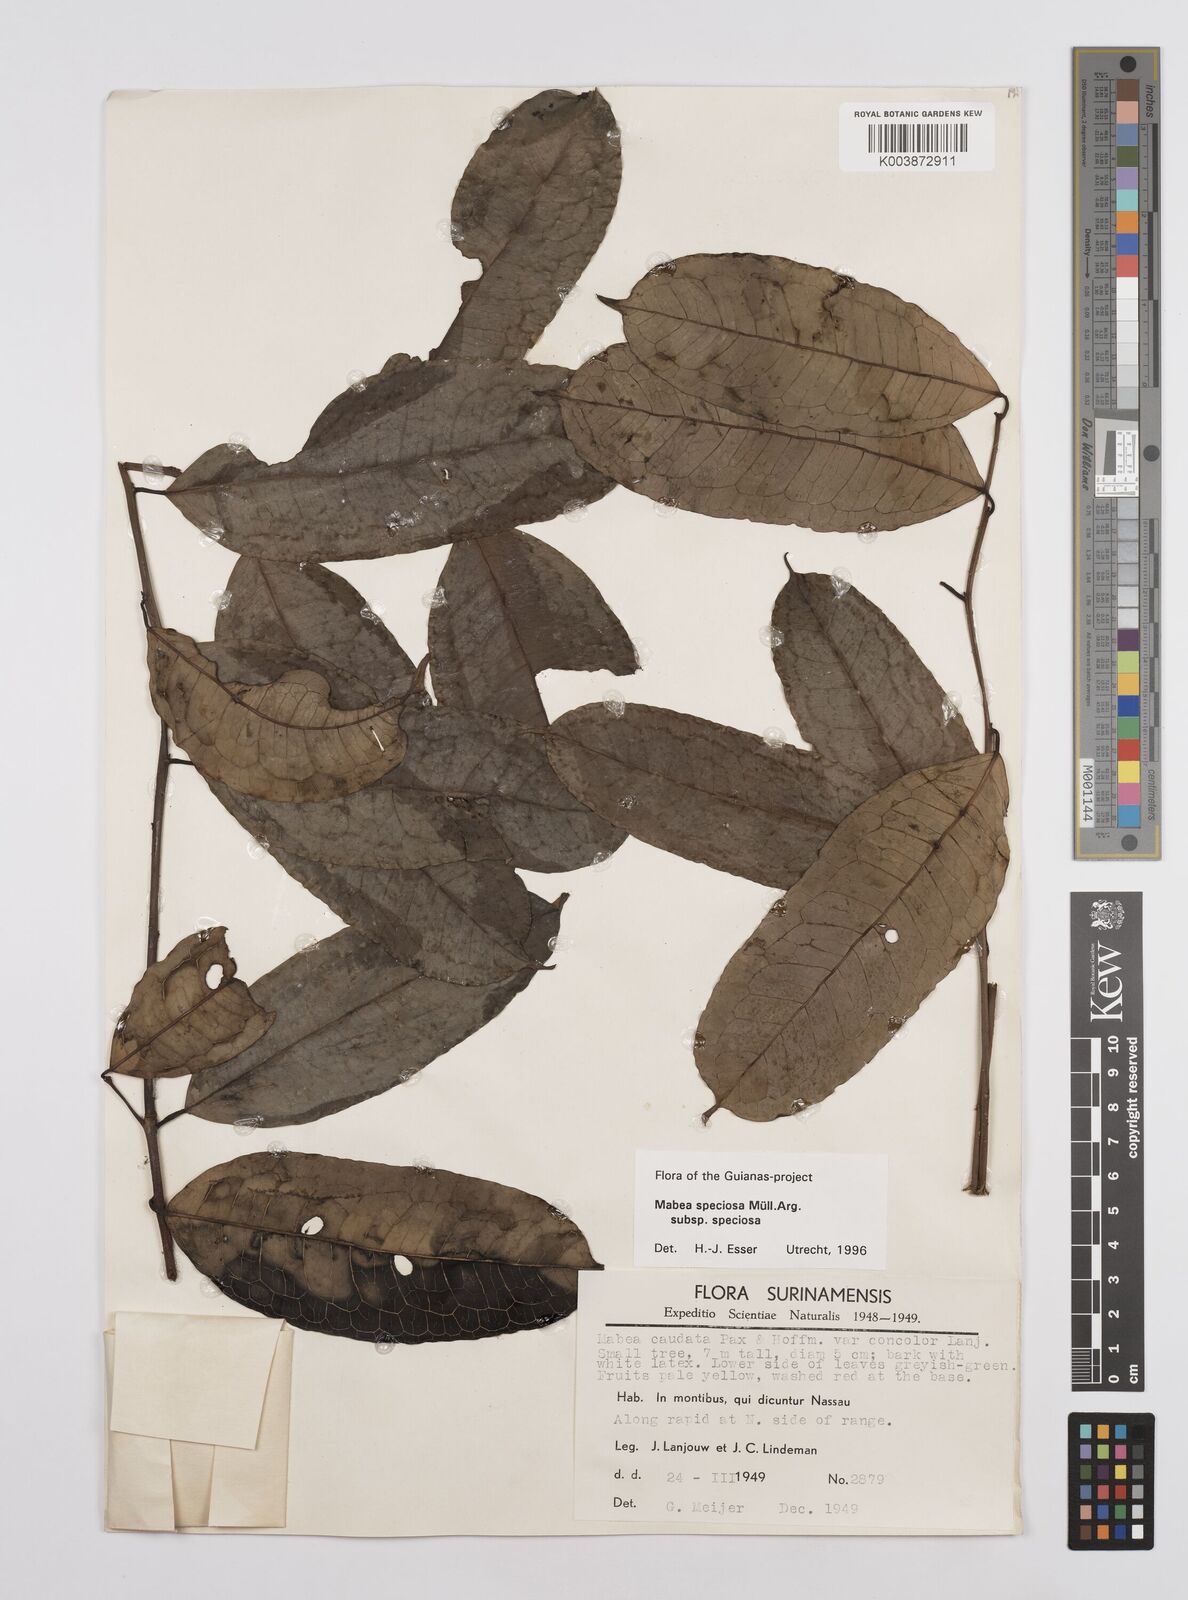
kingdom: Plantae
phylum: Tracheophyta
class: Magnoliopsida
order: Malpighiales
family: Euphorbiaceae
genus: Mabea
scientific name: Mabea speciosa
